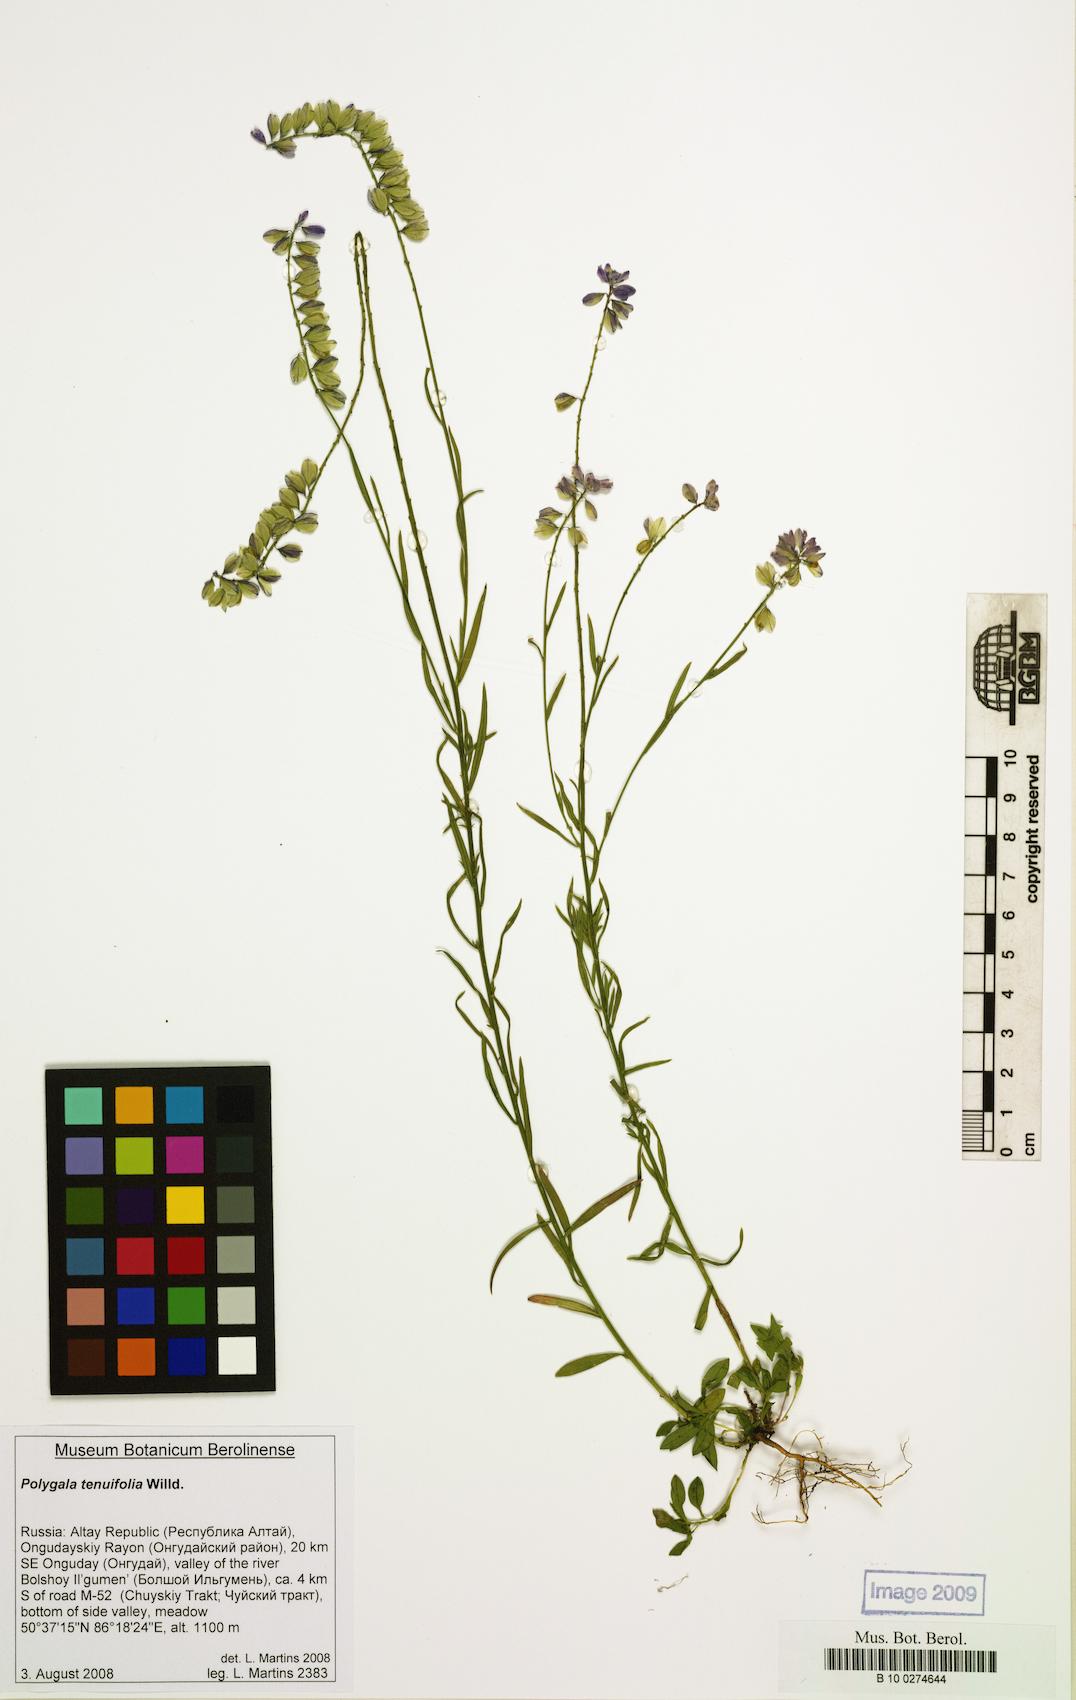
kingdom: Plantae
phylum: Tracheophyta
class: Magnoliopsida
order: Fabales
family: Polygalaceae
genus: Polygala
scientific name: Polygala tenuifolia
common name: Chinese senega-root
